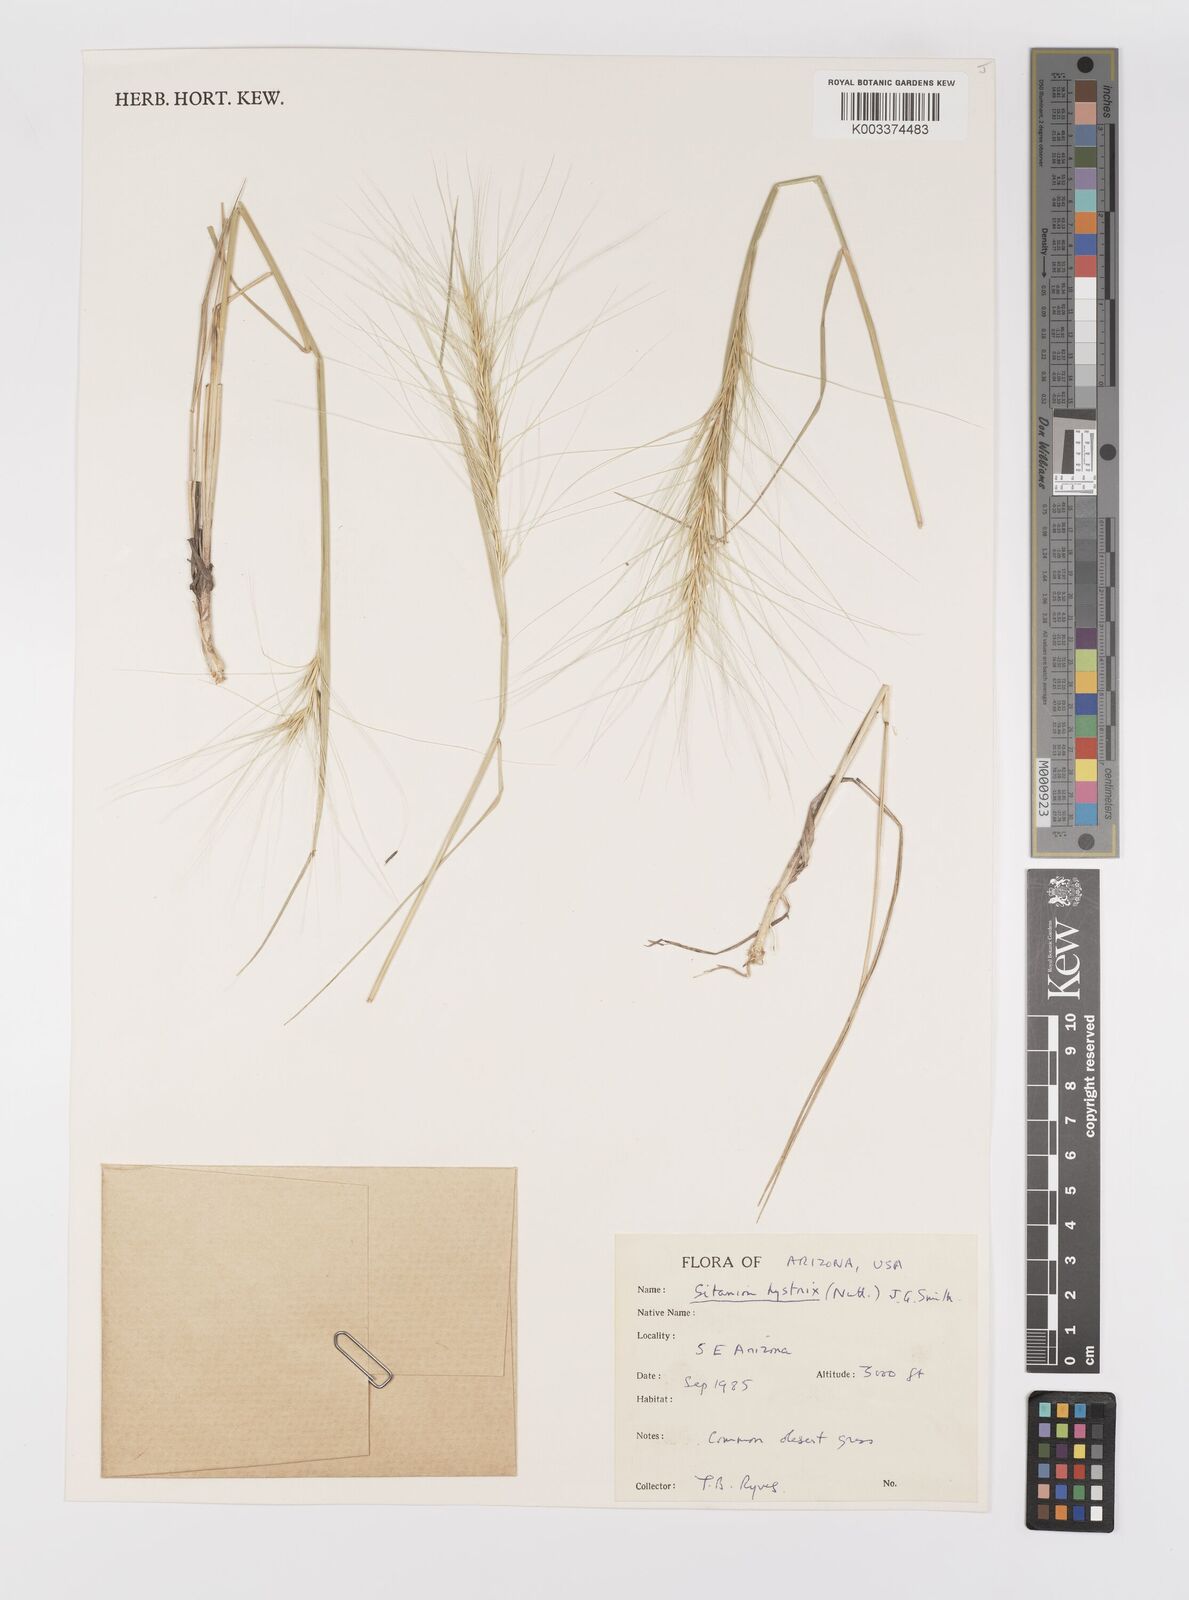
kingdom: Plantae
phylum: Tracheophyta
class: Liliopsida
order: Poales
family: Poaceae
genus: Elymus
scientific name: Elymus elymoides
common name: Bottlebrush squirreltail
